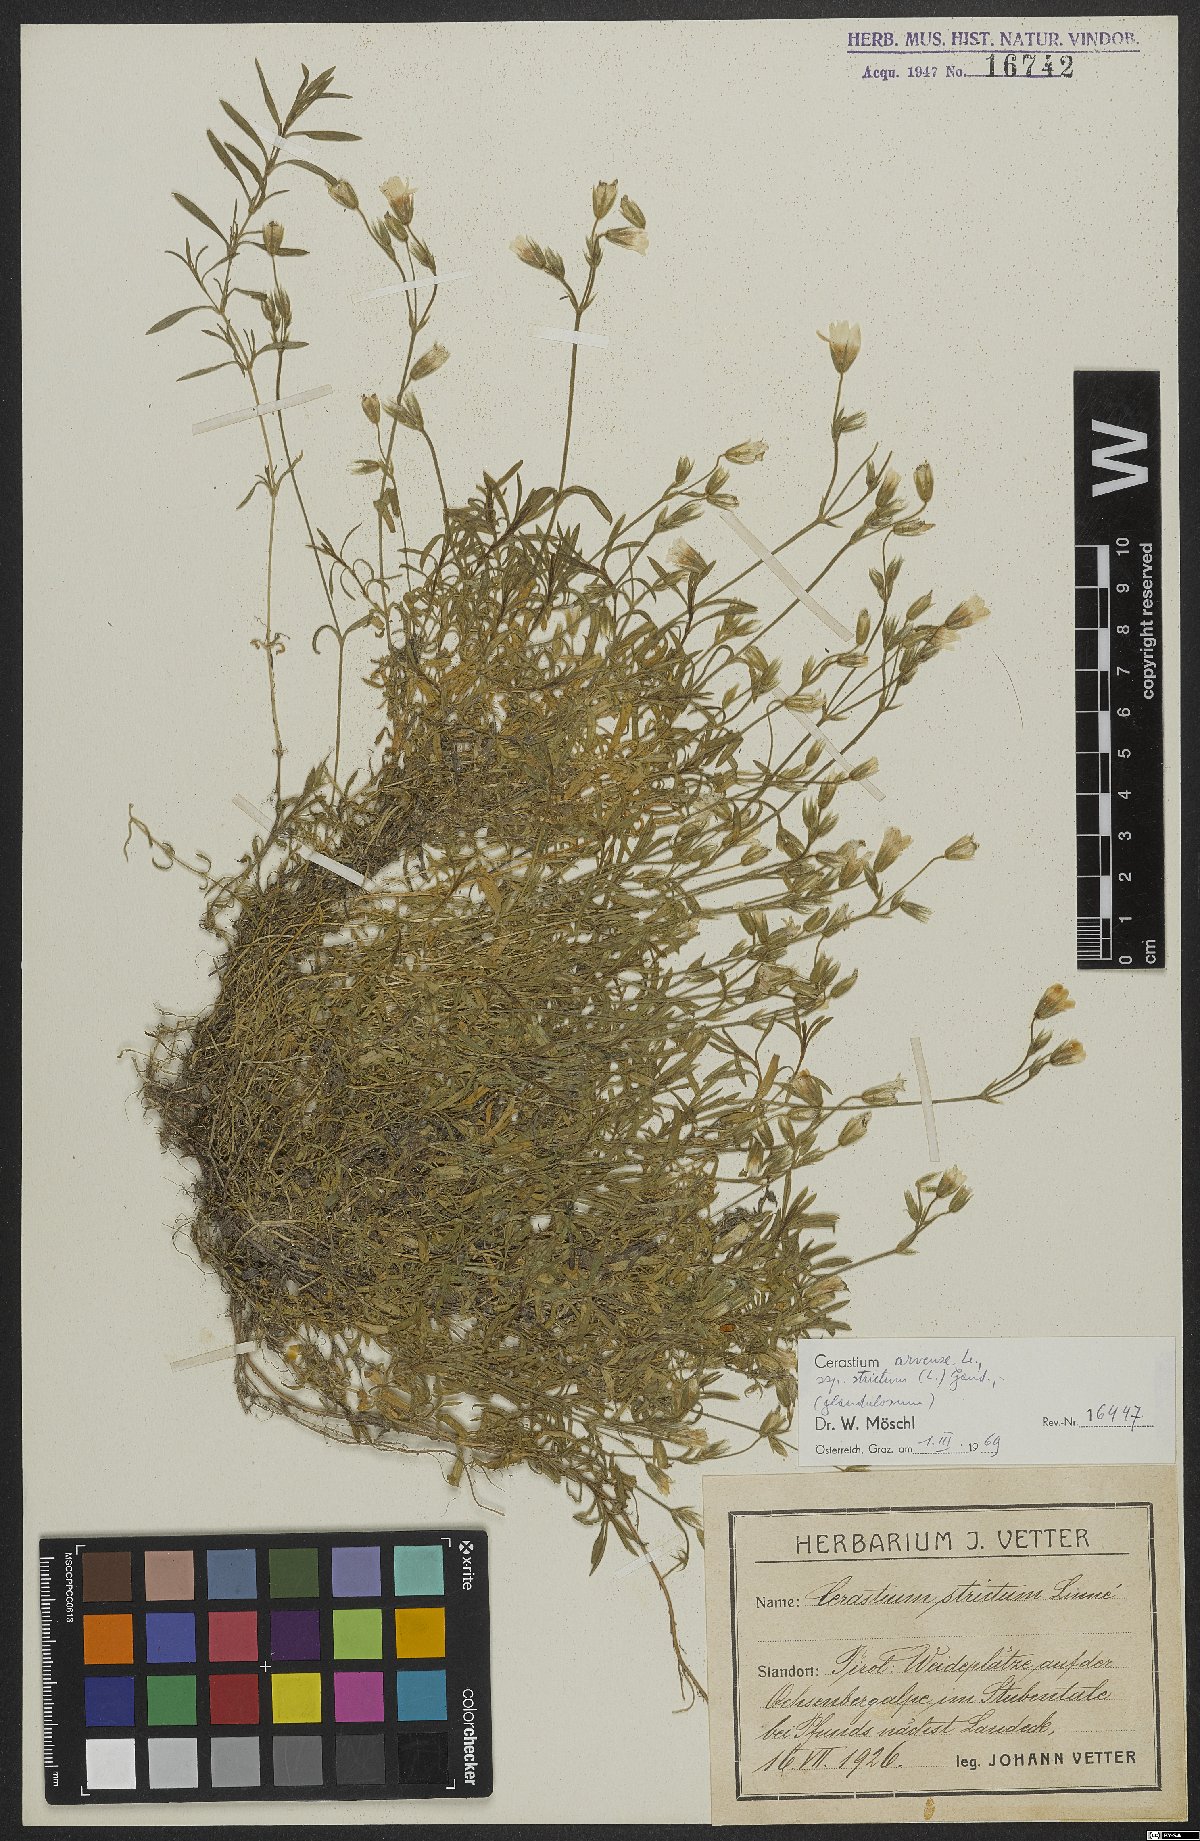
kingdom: Plantae
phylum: Tracheophyta
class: Magnoliopsida
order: Caryophyllales
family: Caryophyllaceae
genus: Cerastium
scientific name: Cerastium elongatum
